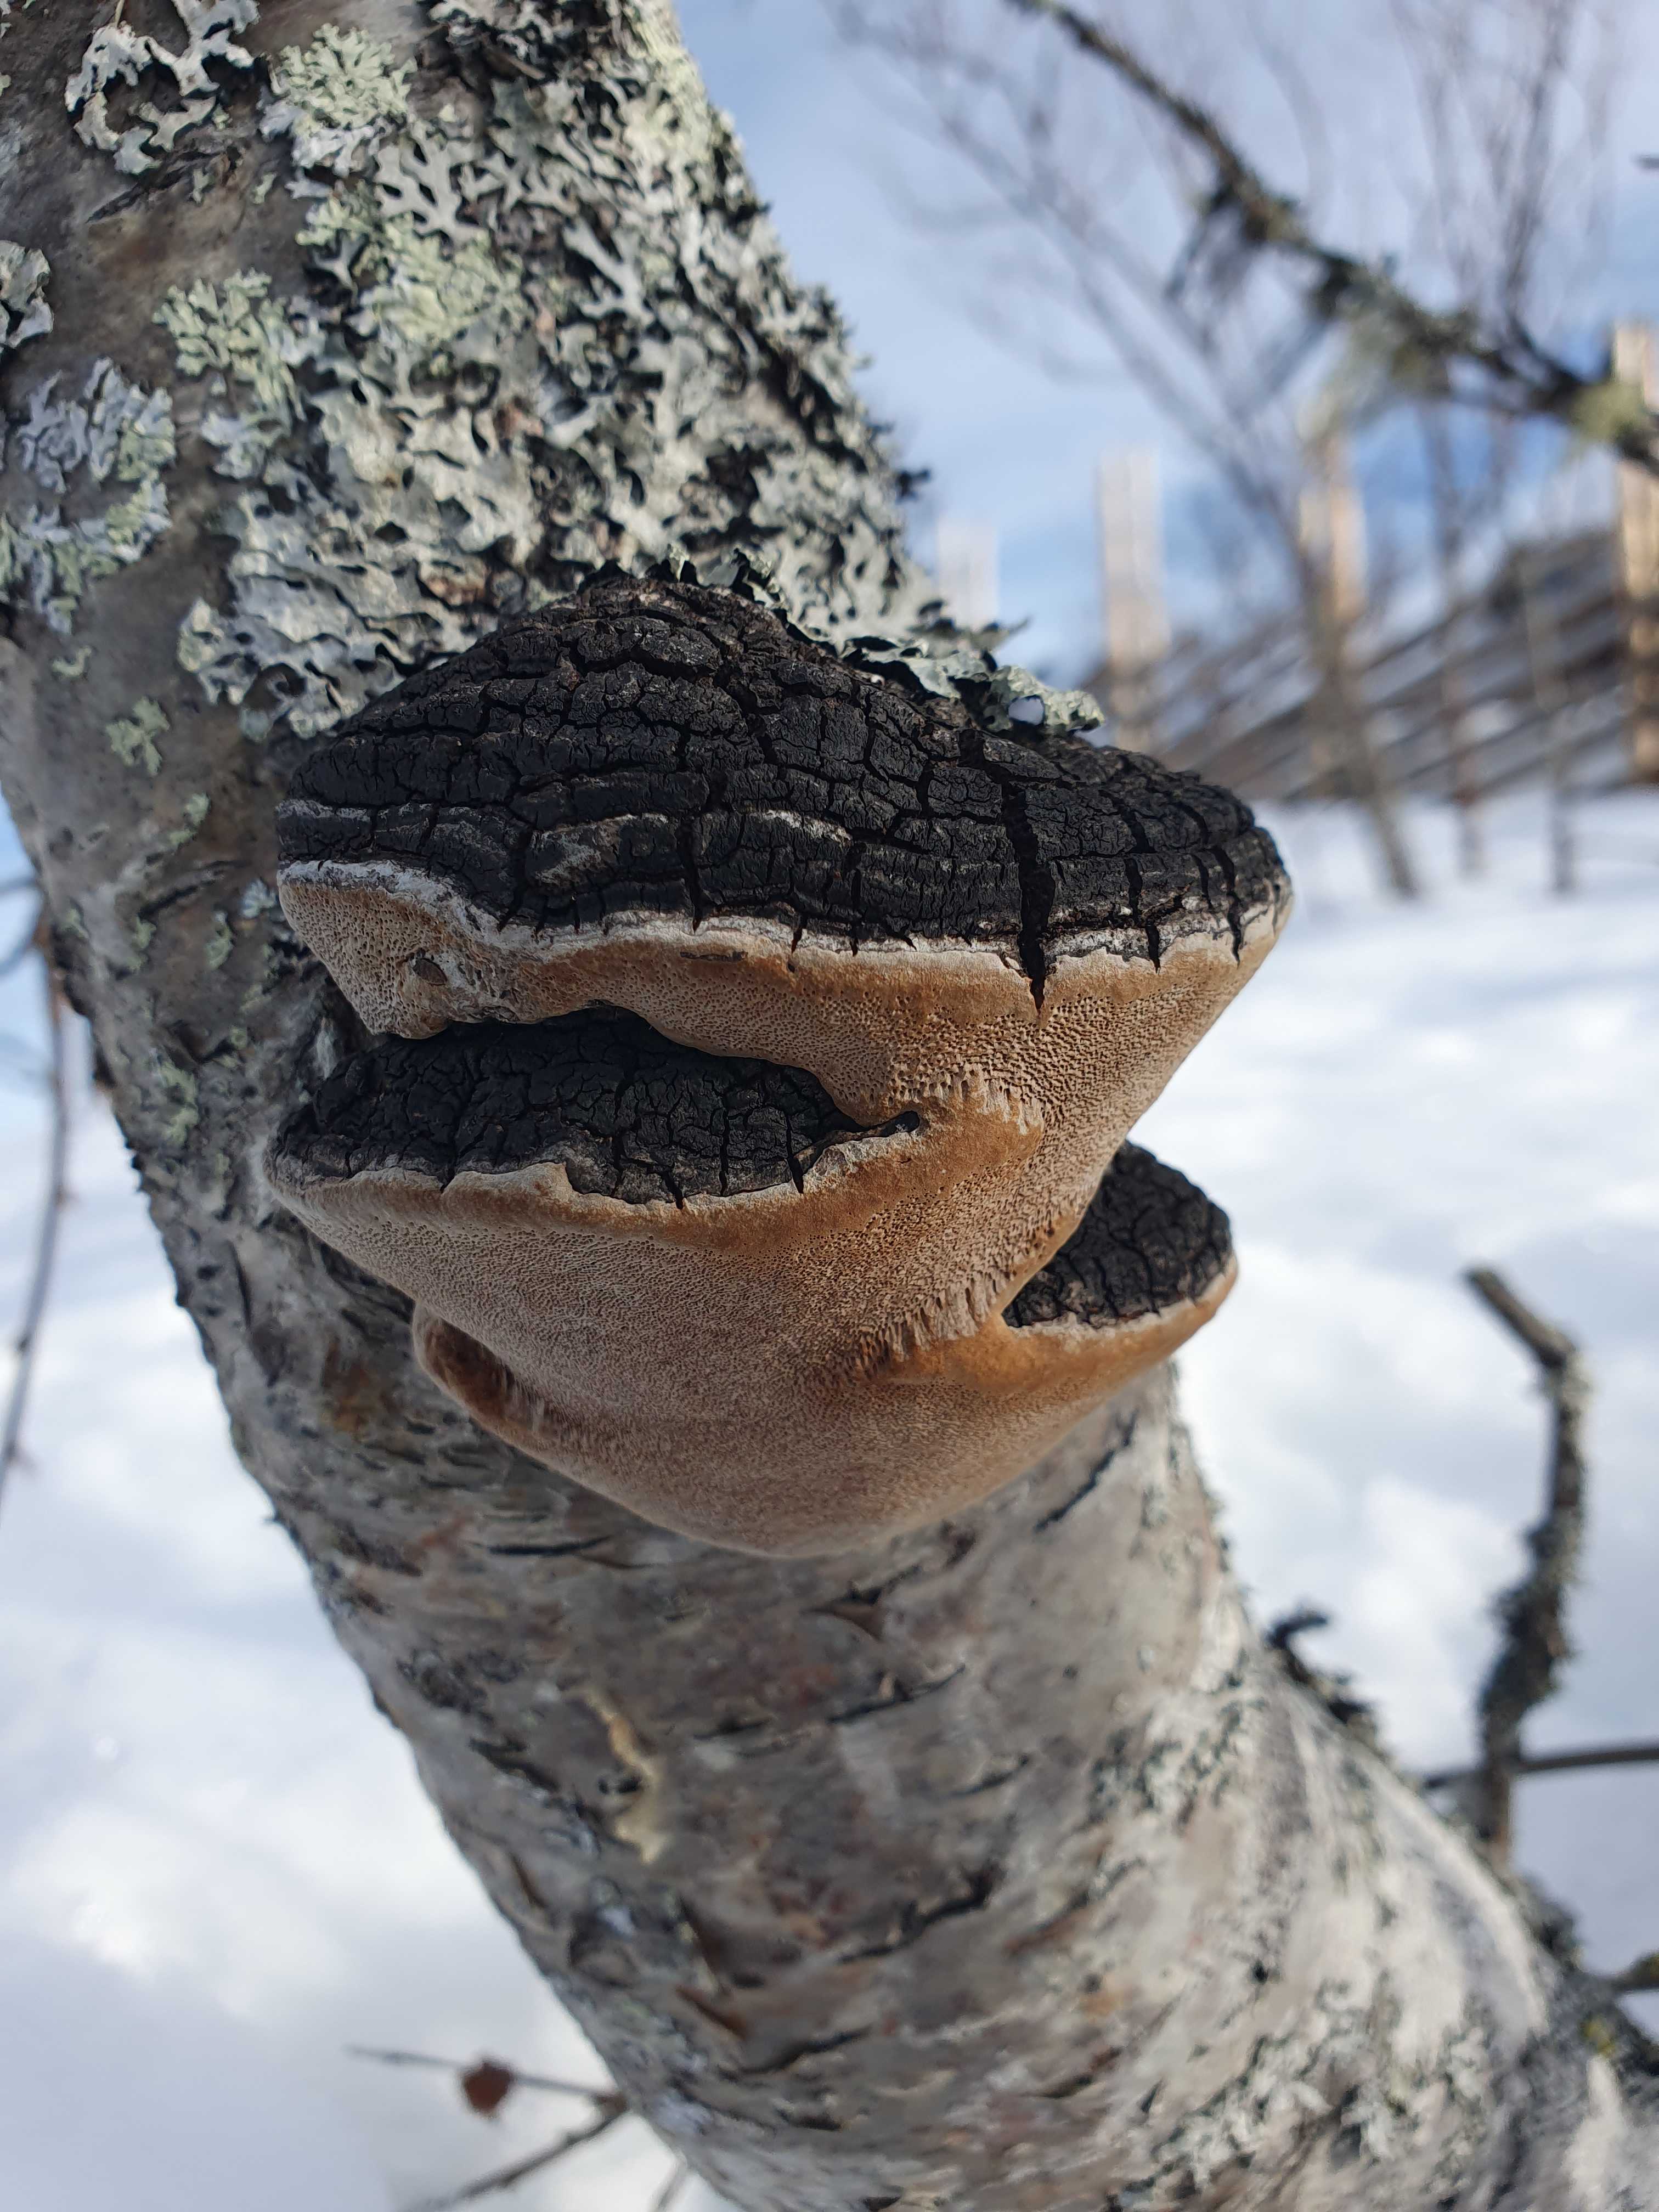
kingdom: Fungi
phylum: Basidiomycota
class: Agaricomycetes
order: Hymenochaetales
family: Hymenochaetaceae
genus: Phellinus
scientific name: Phellinus lundellii
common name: birke-ildporesvamp
